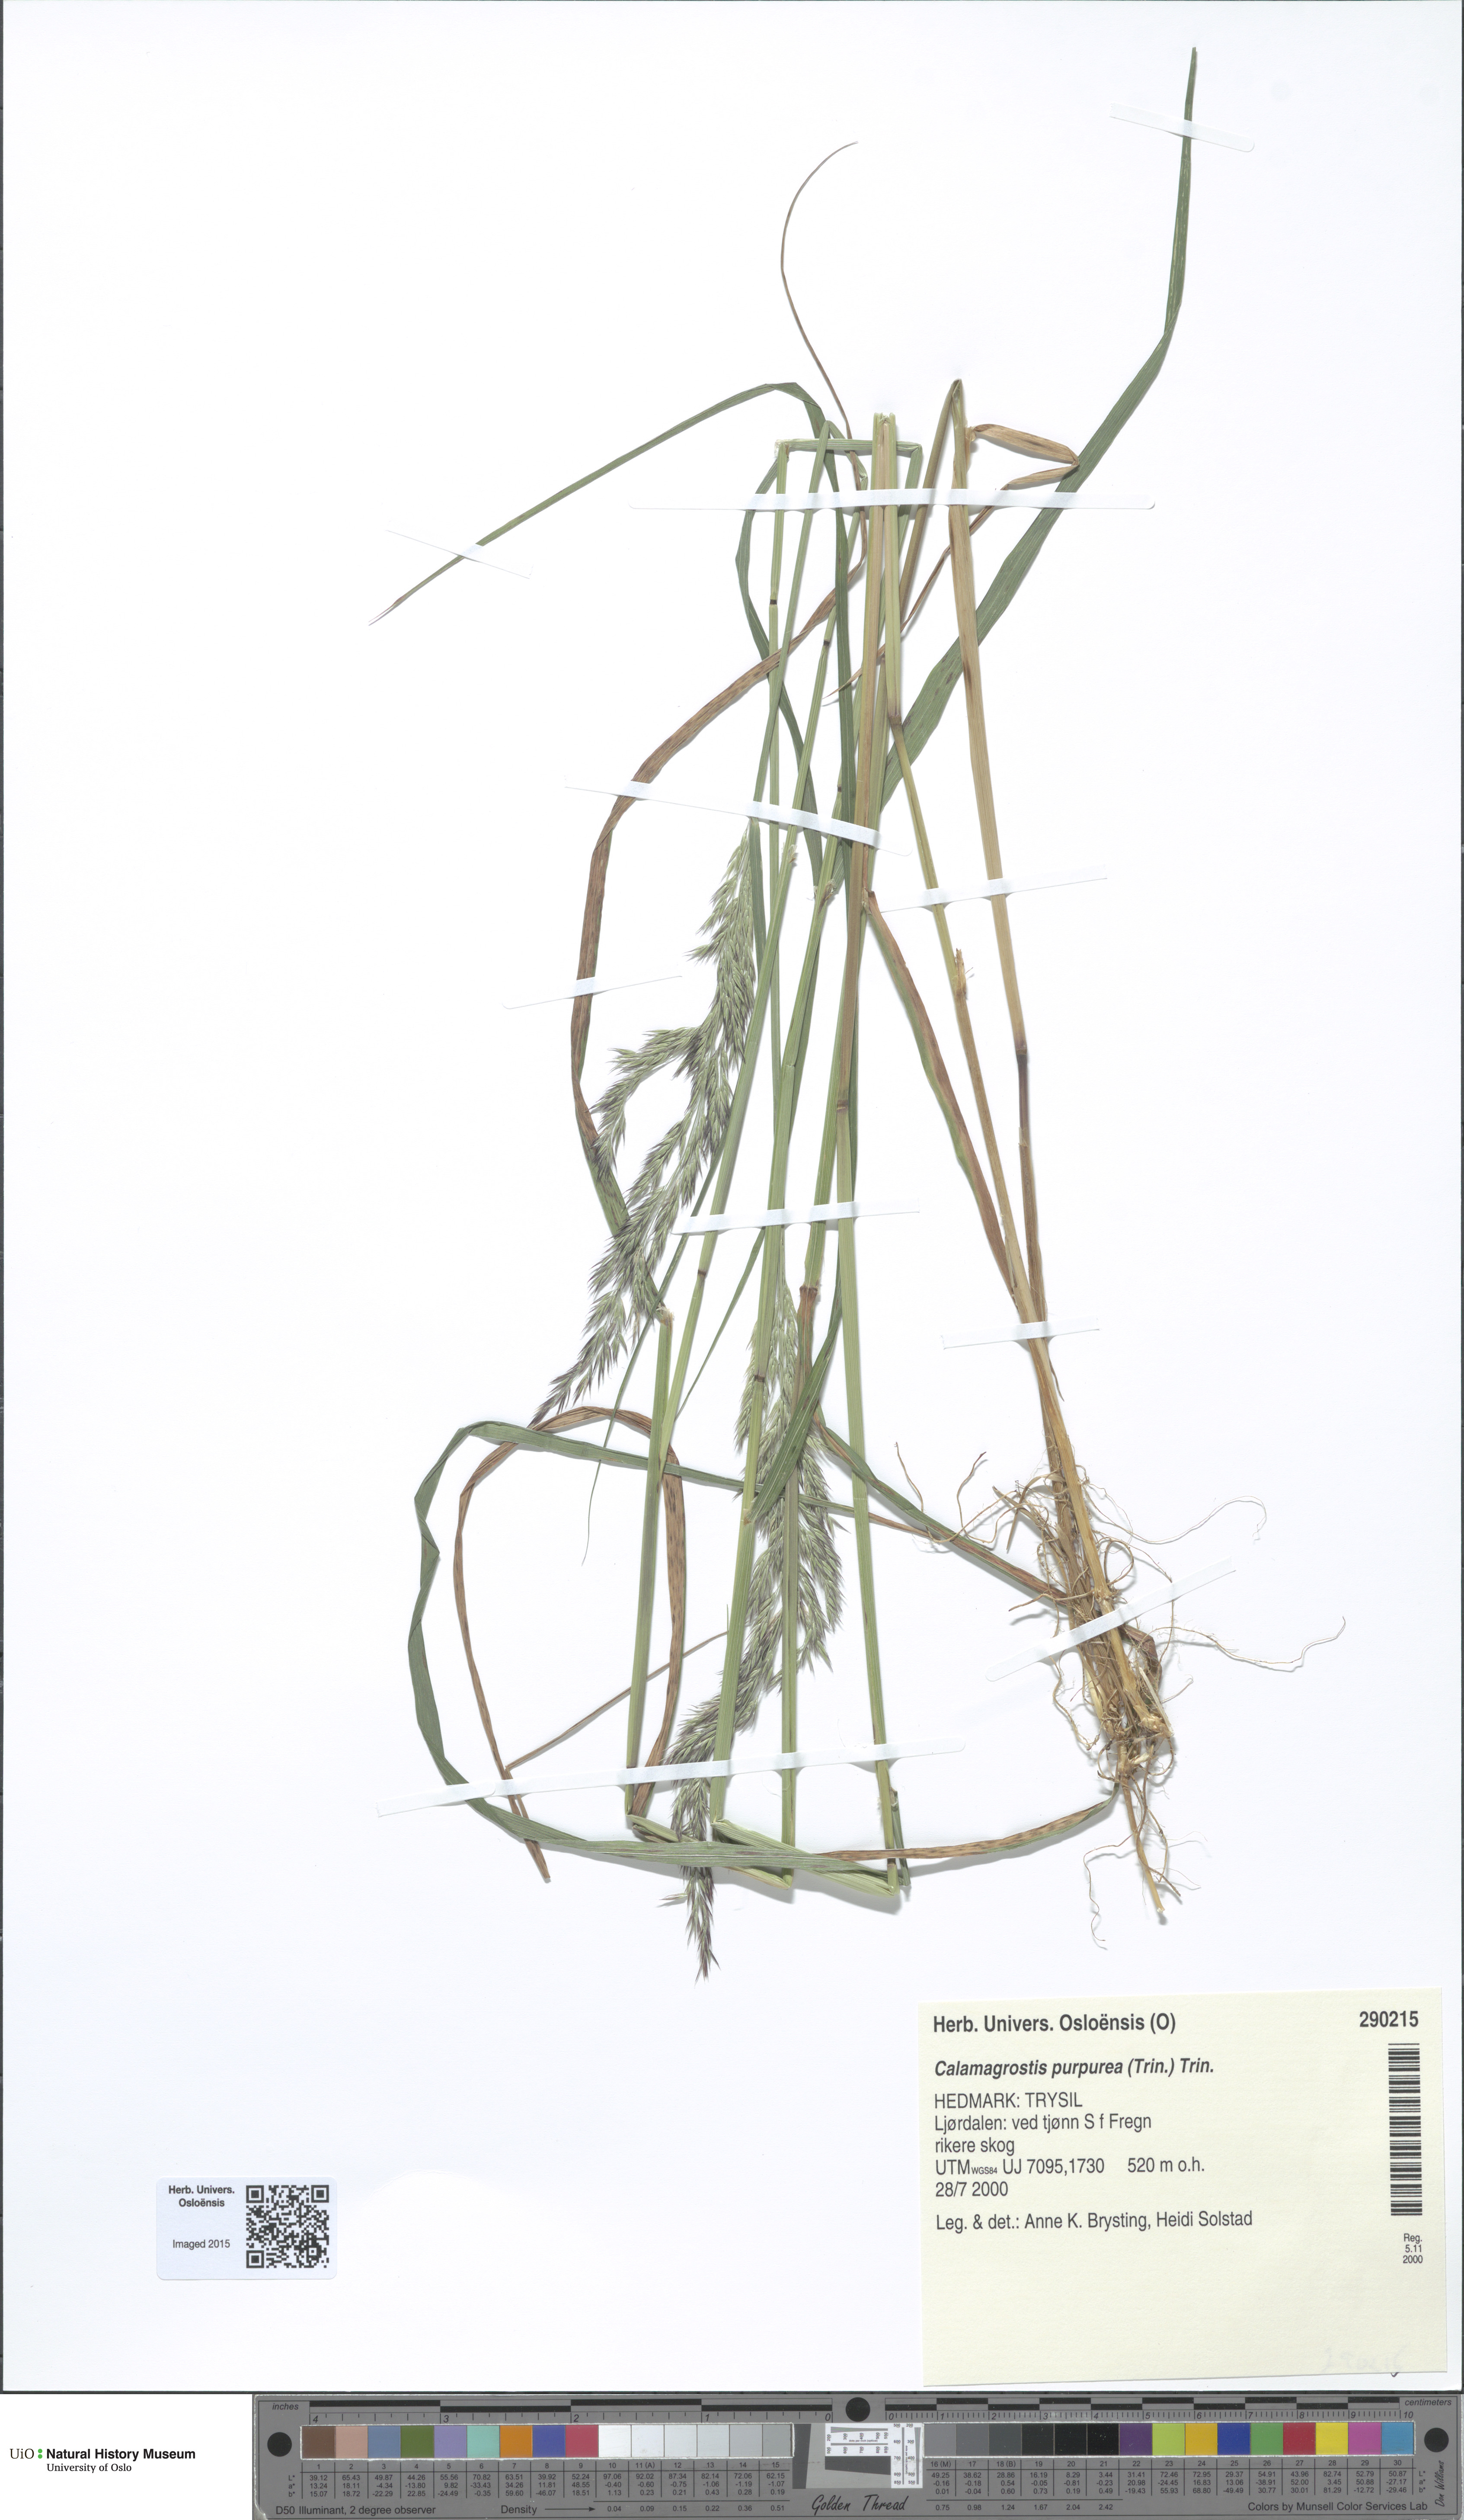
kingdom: Plantae
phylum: Tracheophyta
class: Liliopsida
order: Poales
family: Poaceae
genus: Calamagrostis
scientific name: Calamagrostis purpurea
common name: Scandinavian small-reed
